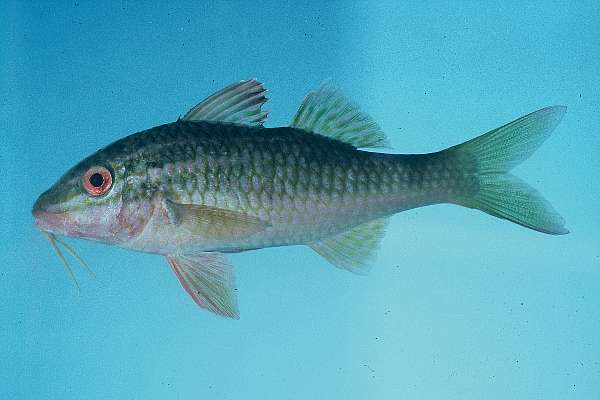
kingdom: Animalia
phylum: Chordata
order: Perciformes
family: Mullidae
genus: Parupeneus
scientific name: Parupeneus
